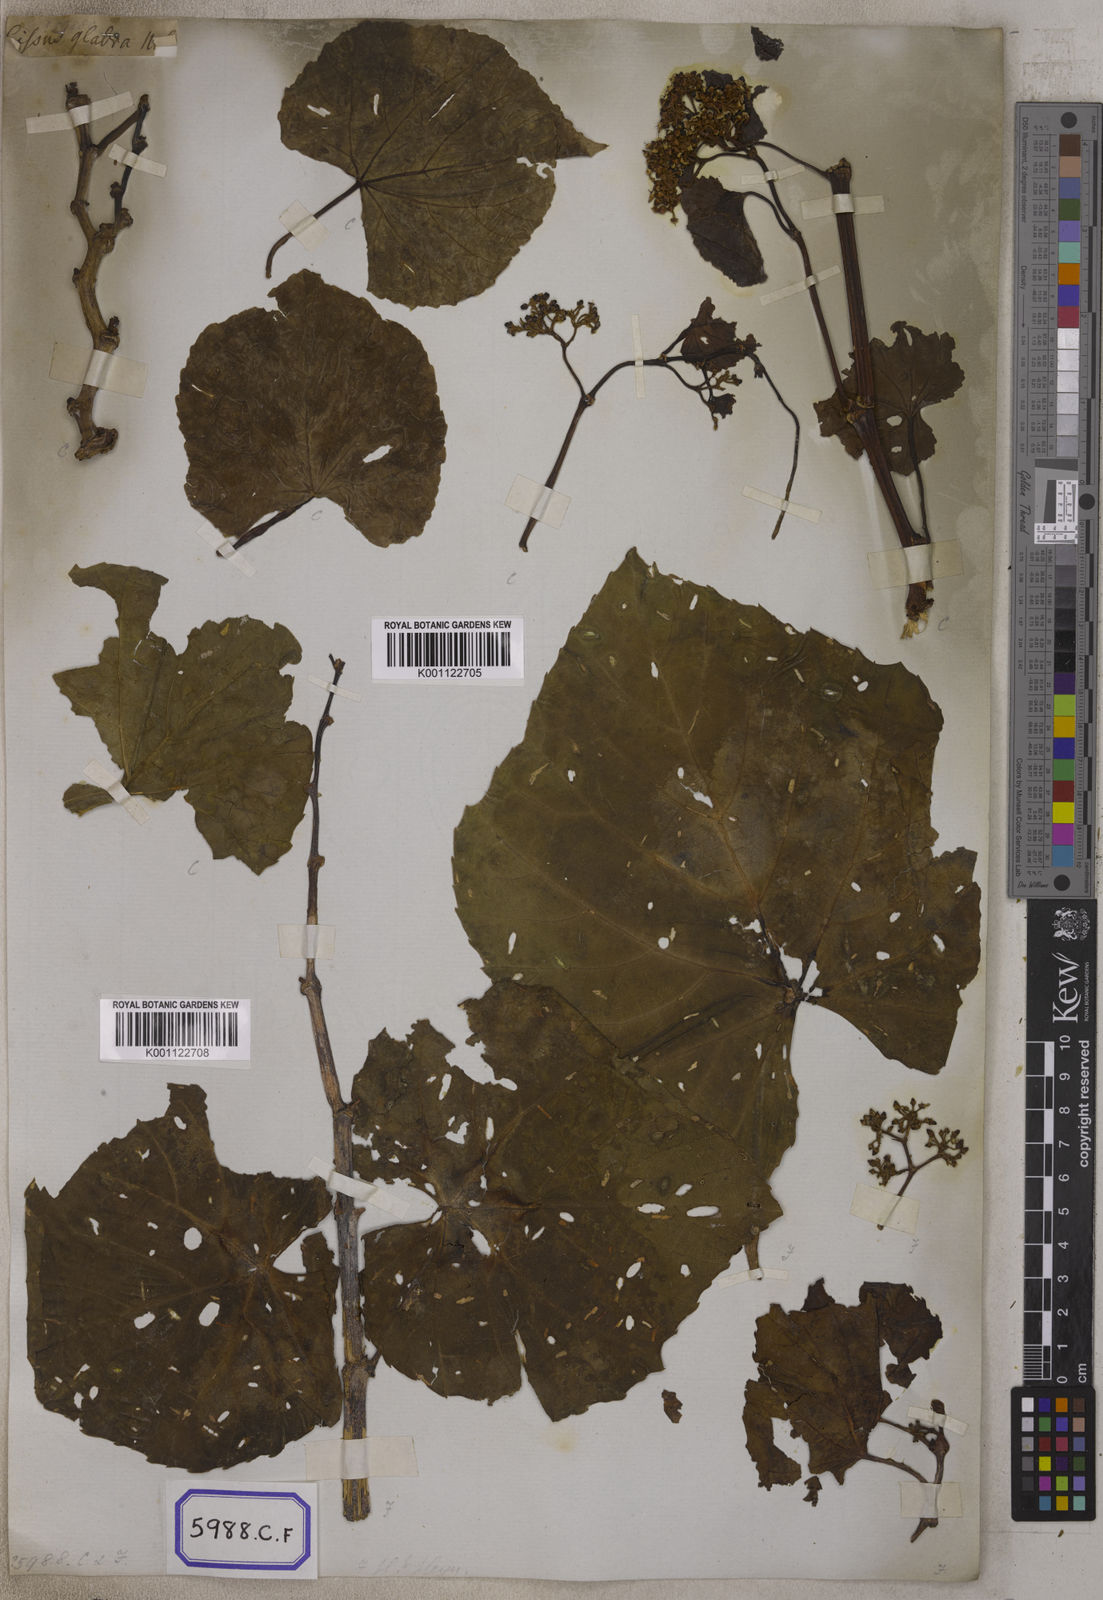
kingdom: Plantae
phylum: Tracheophyta
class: Magnoliopsida
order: Vitales
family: Vitaceae
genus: Vitis
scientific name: Vitis
